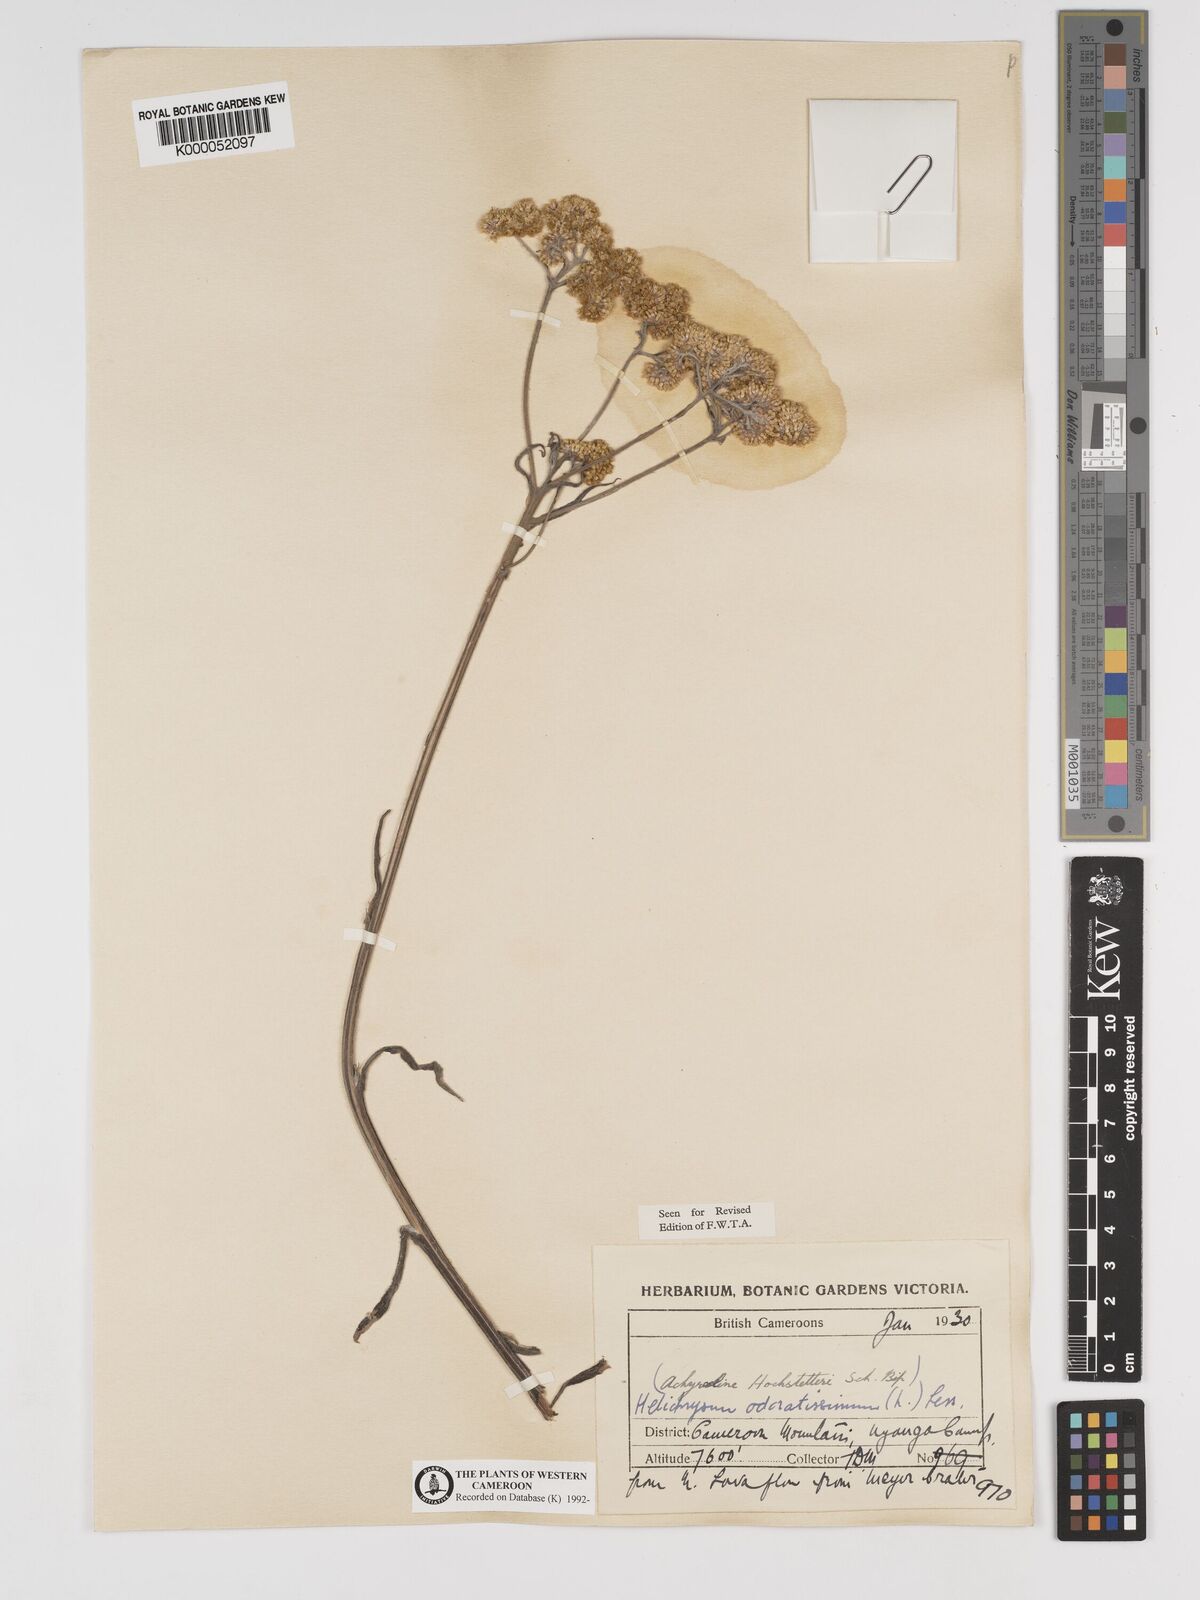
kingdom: Plantae
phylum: Tracheophyta
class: Magnoliopsida
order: Asterales
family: Asteraceae
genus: Helichrysum
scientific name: Helichrysum odoratissimum
